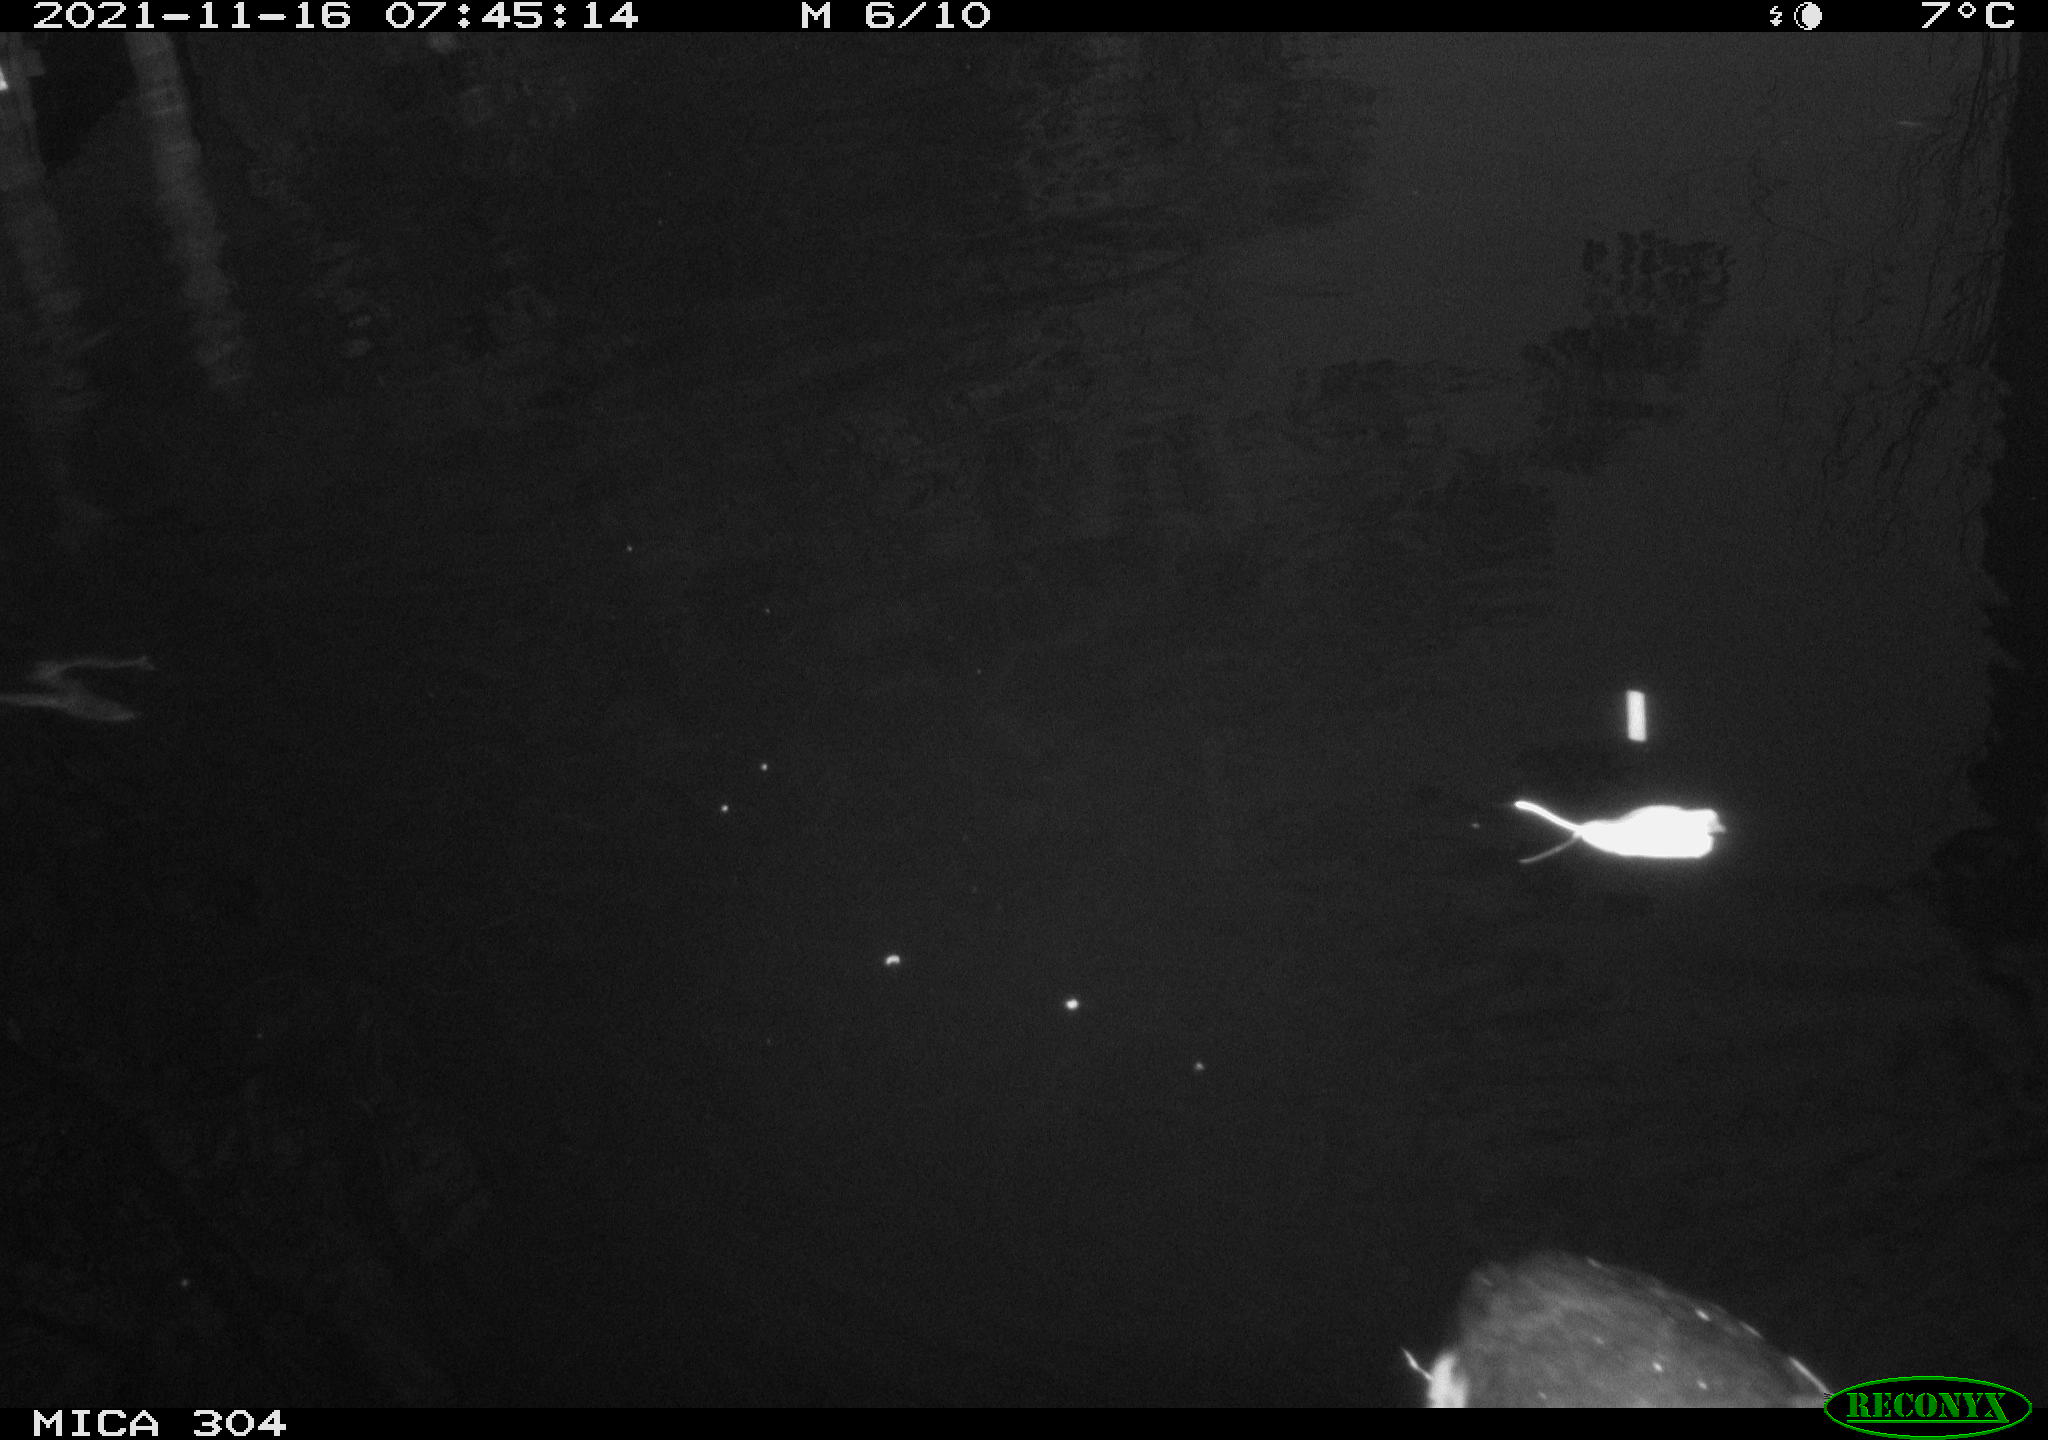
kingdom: Animalia
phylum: Chordata
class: Aves
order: Gruiformes
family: Rallidae
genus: Fulica
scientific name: Fulica atra
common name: Eurasian coot
